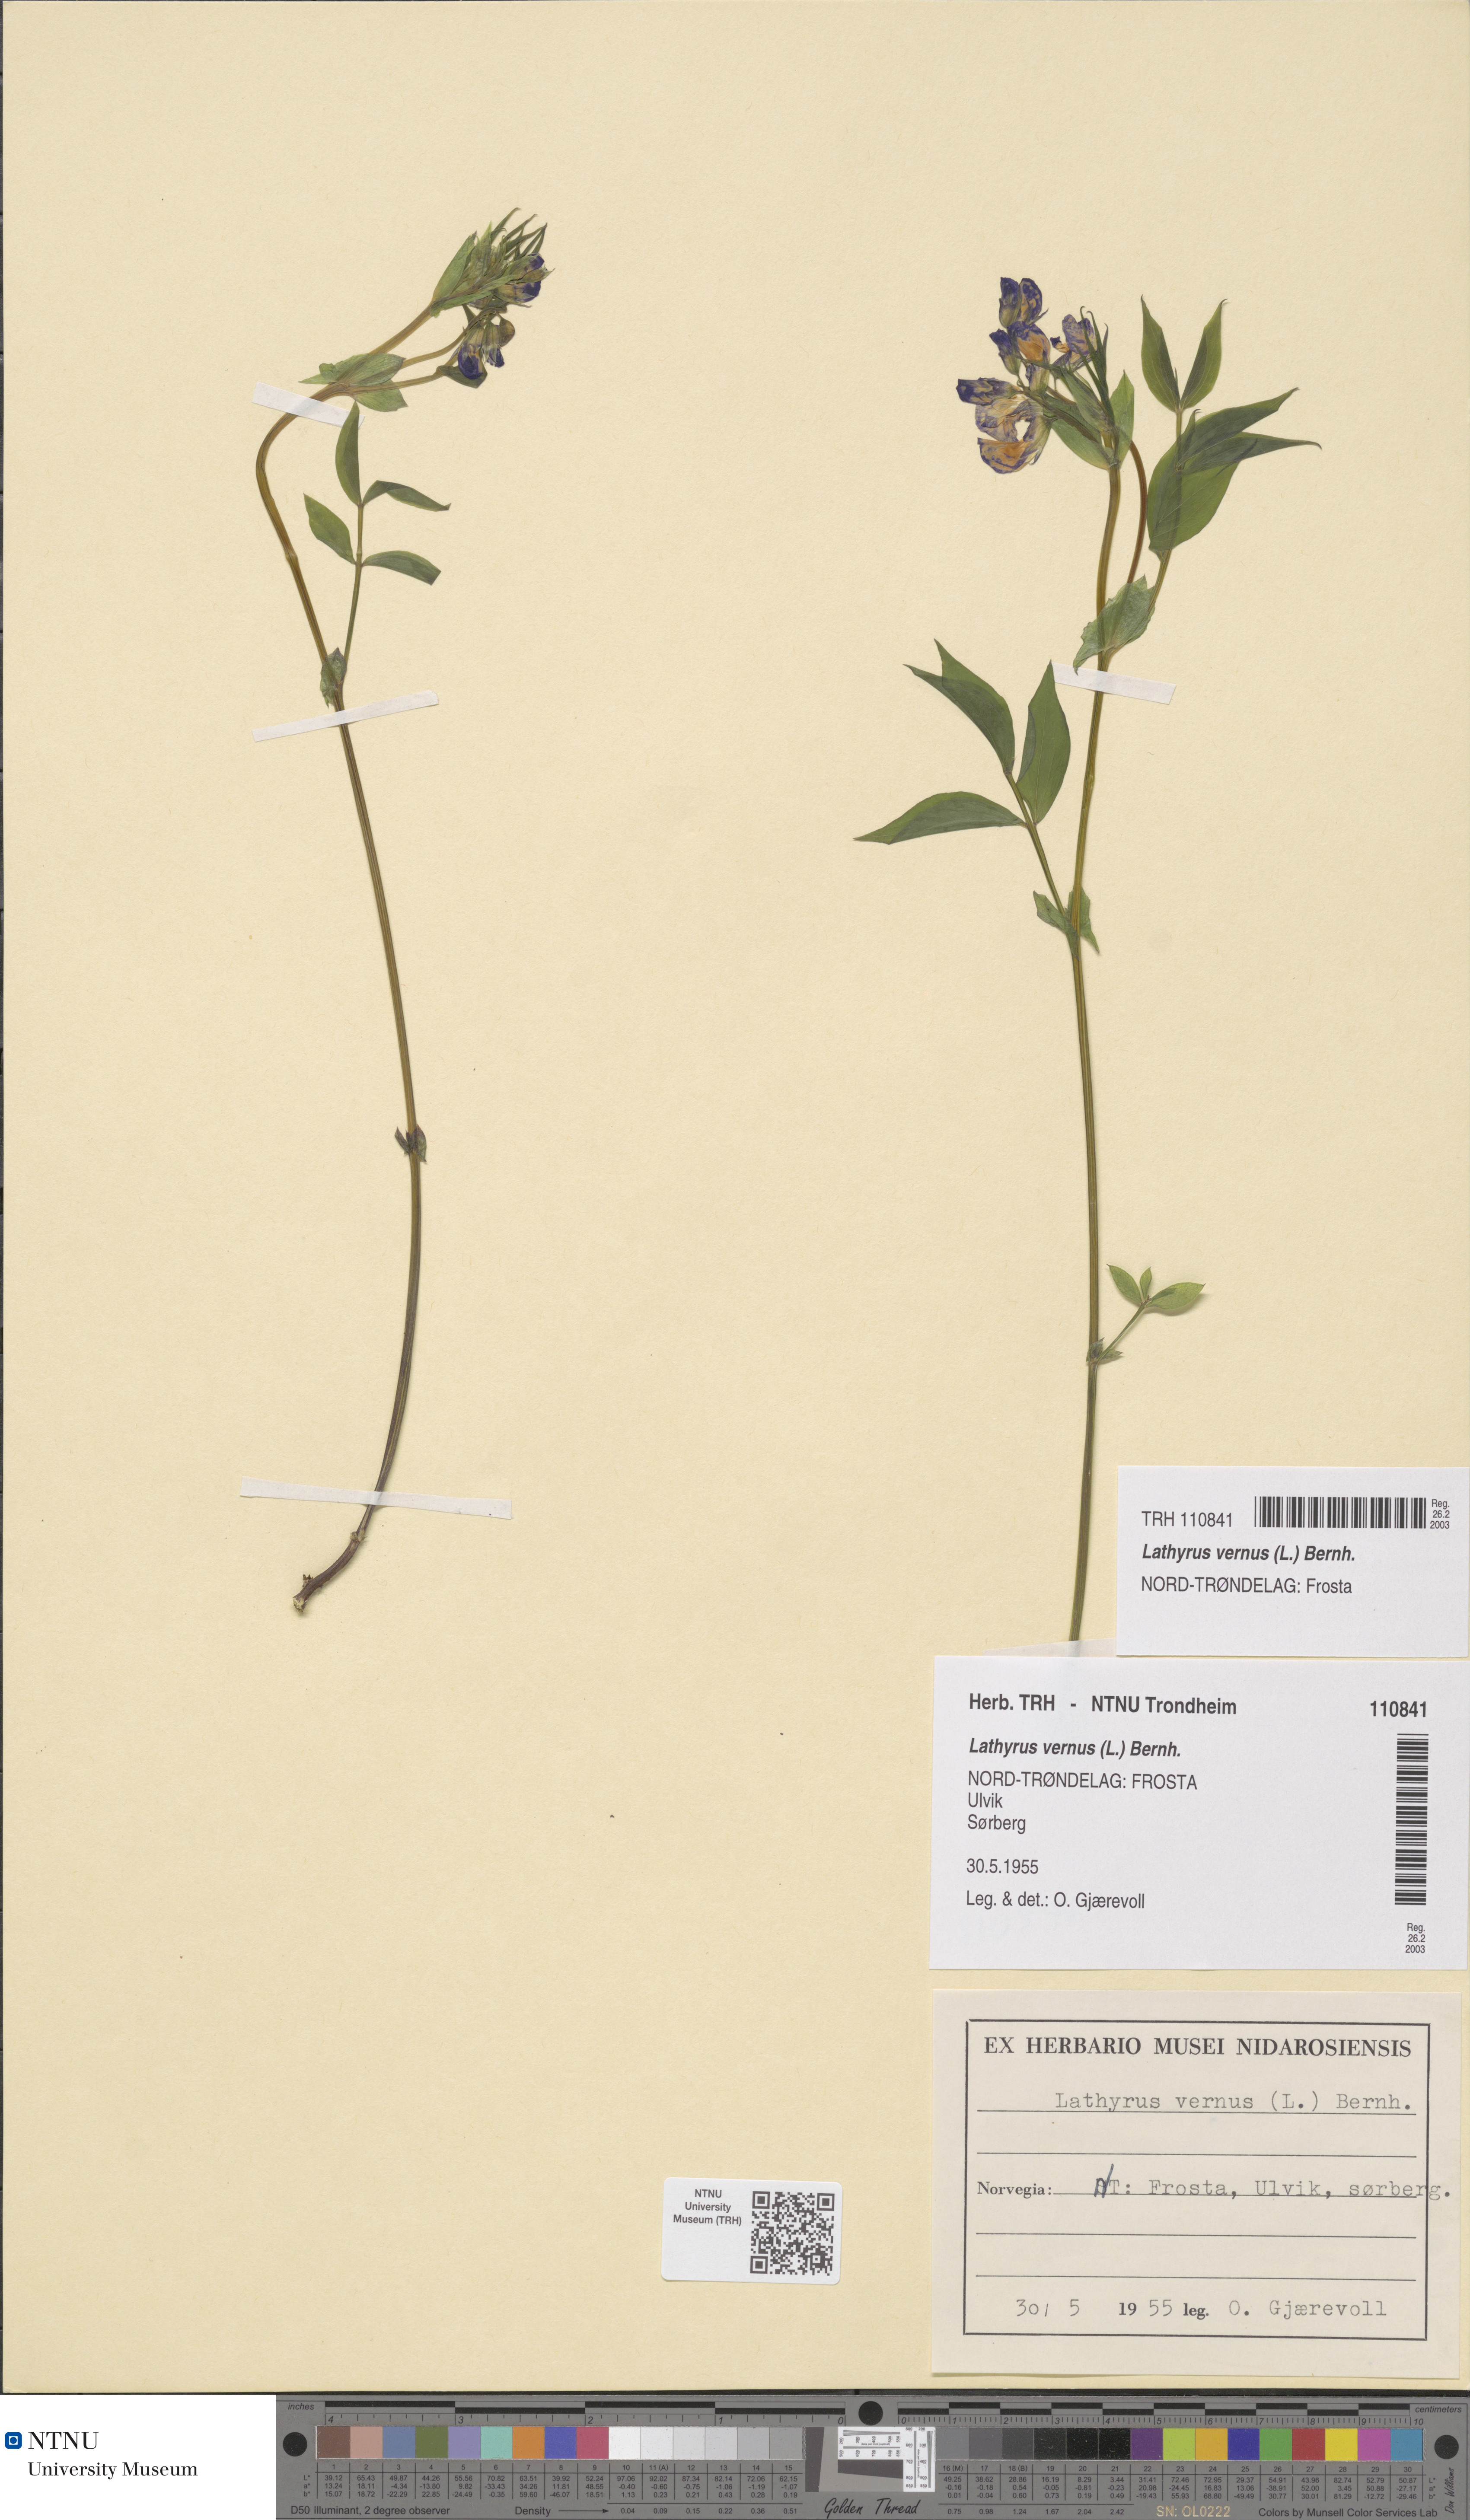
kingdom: Plantae
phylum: Tracheophyta
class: Magnoliopsida
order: Fabales
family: Fabaceae
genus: Lathyrus
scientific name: Lathyrus vernus
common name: Spring pea
